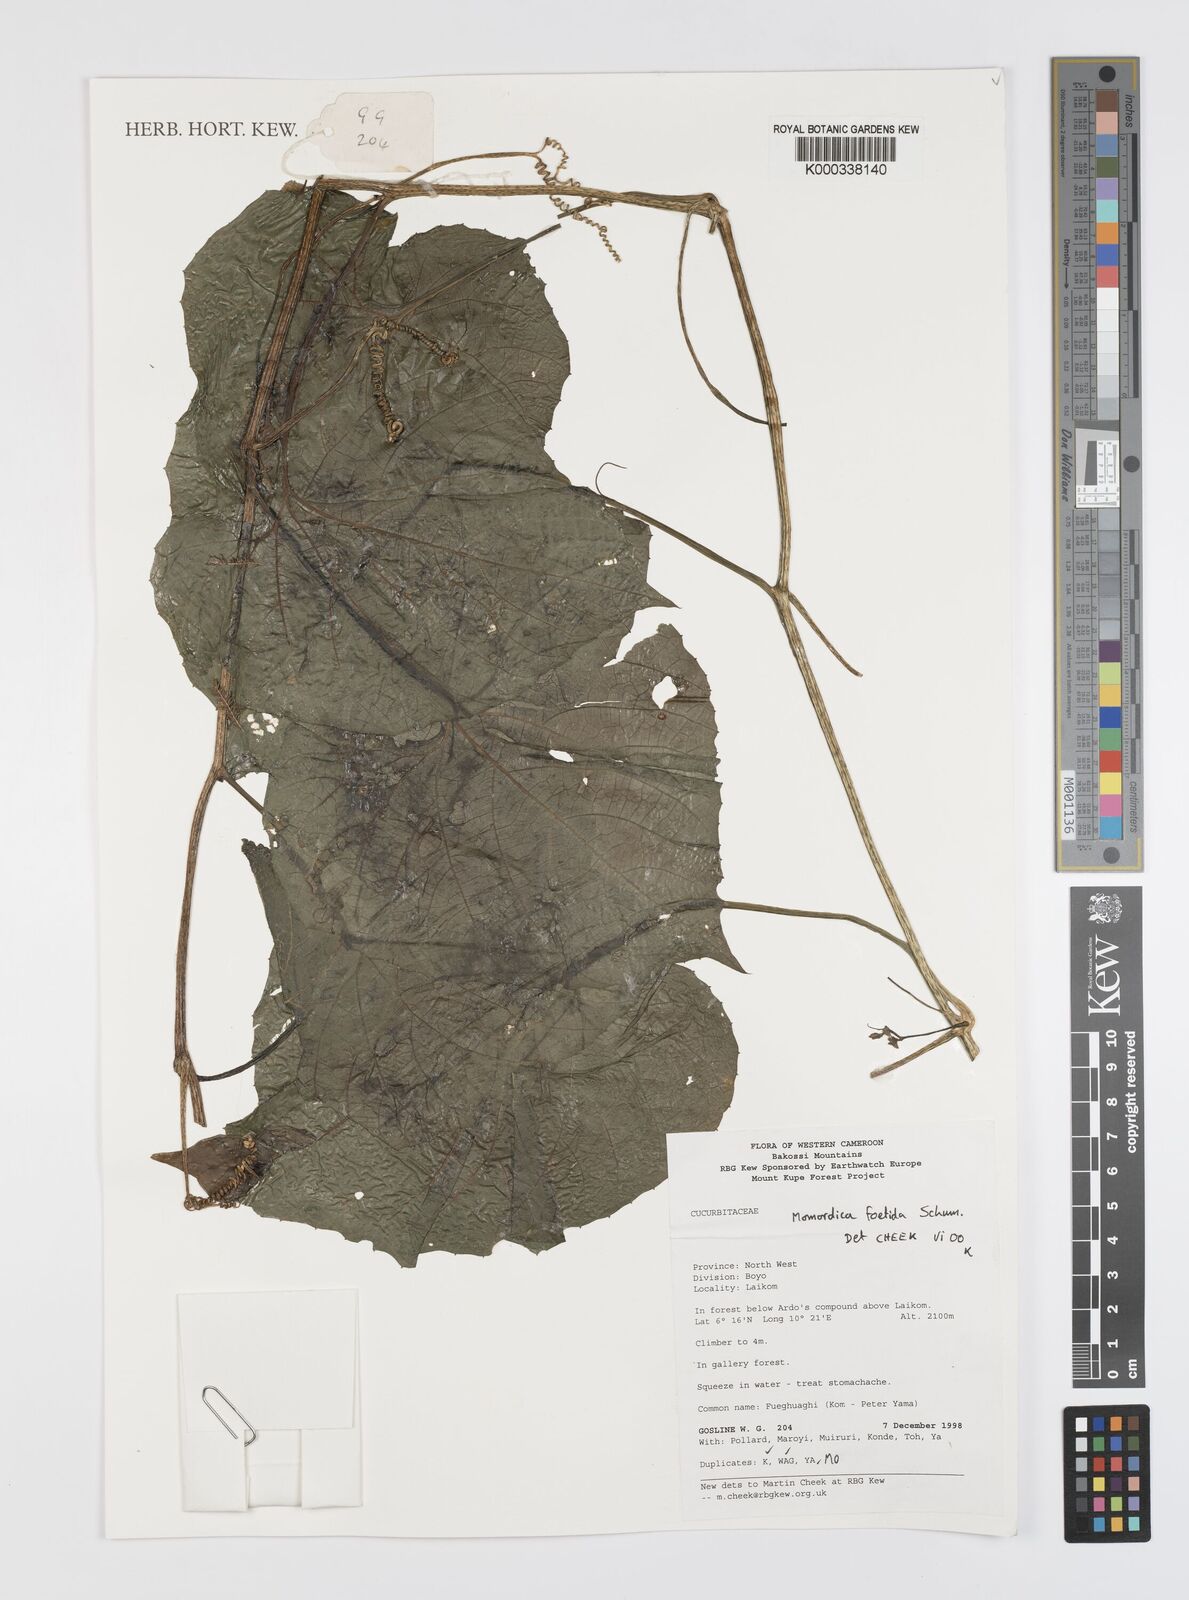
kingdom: Plantae
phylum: Tracheophyta
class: Magnoliopsida
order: Cucurbitales
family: Cucurbitaceae
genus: Momordica
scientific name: Momordica foetida
